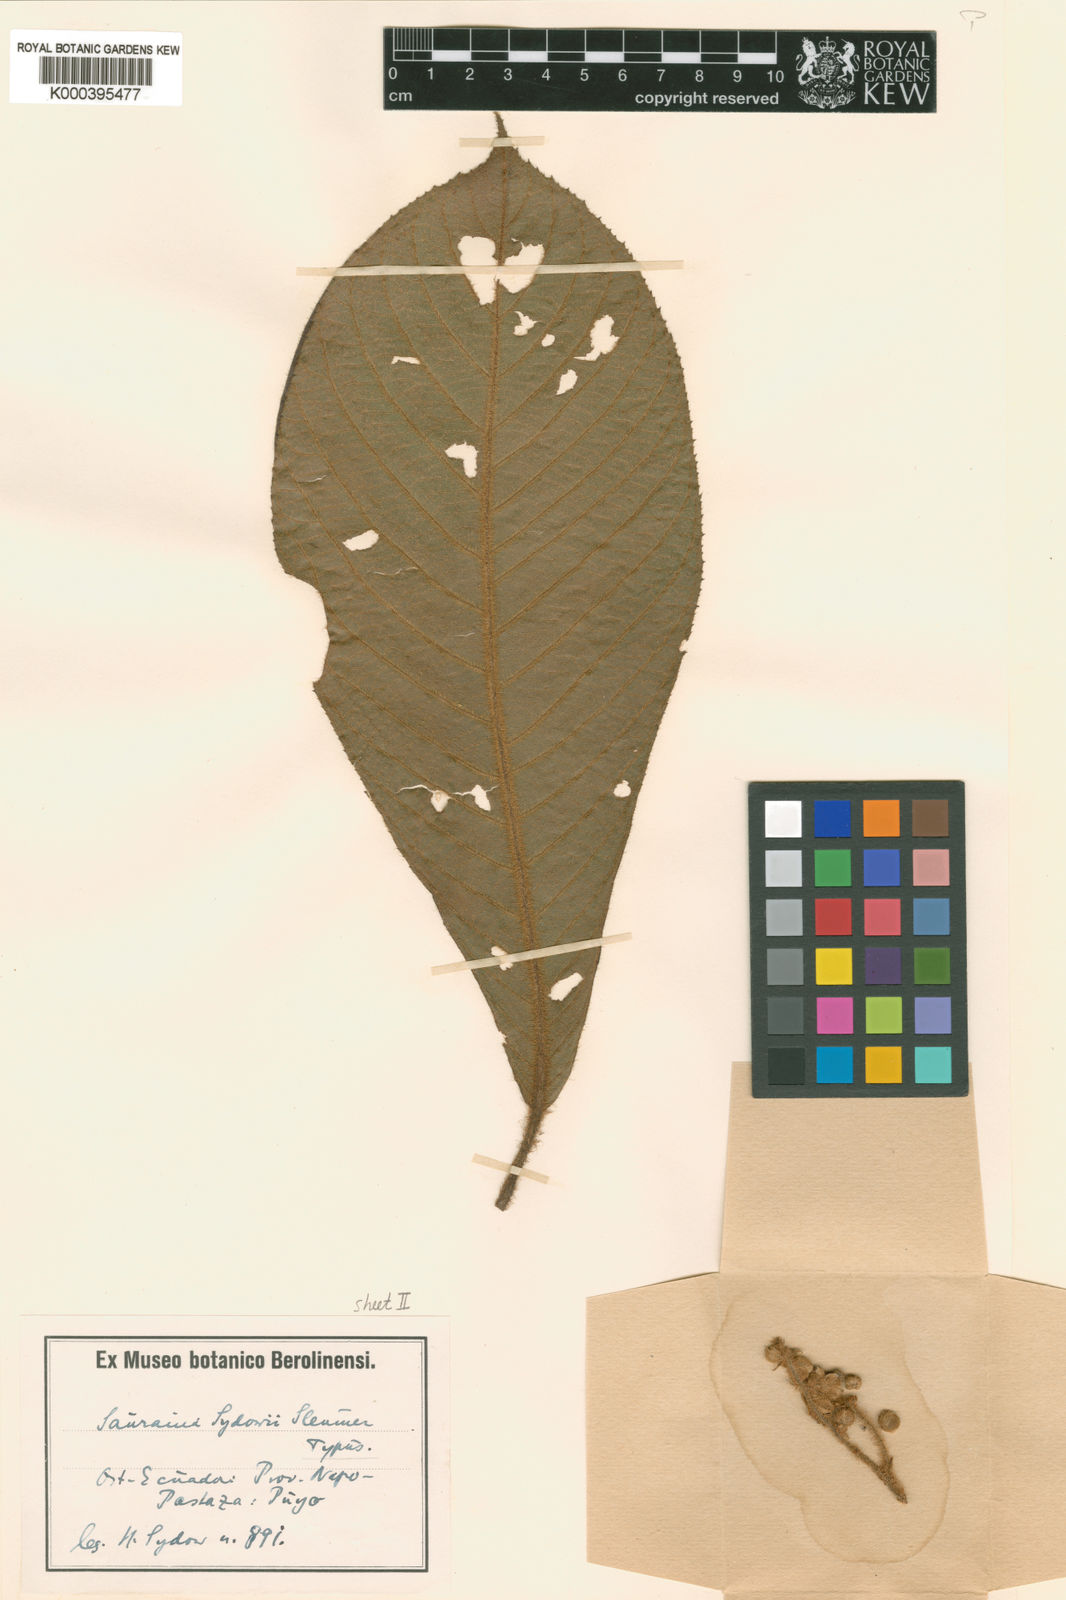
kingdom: Plantae
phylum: Tracheophyta
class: Magnoliopsida
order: Ericales
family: Actinidiaceae
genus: Saurauia
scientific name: Saurauia prainiana
